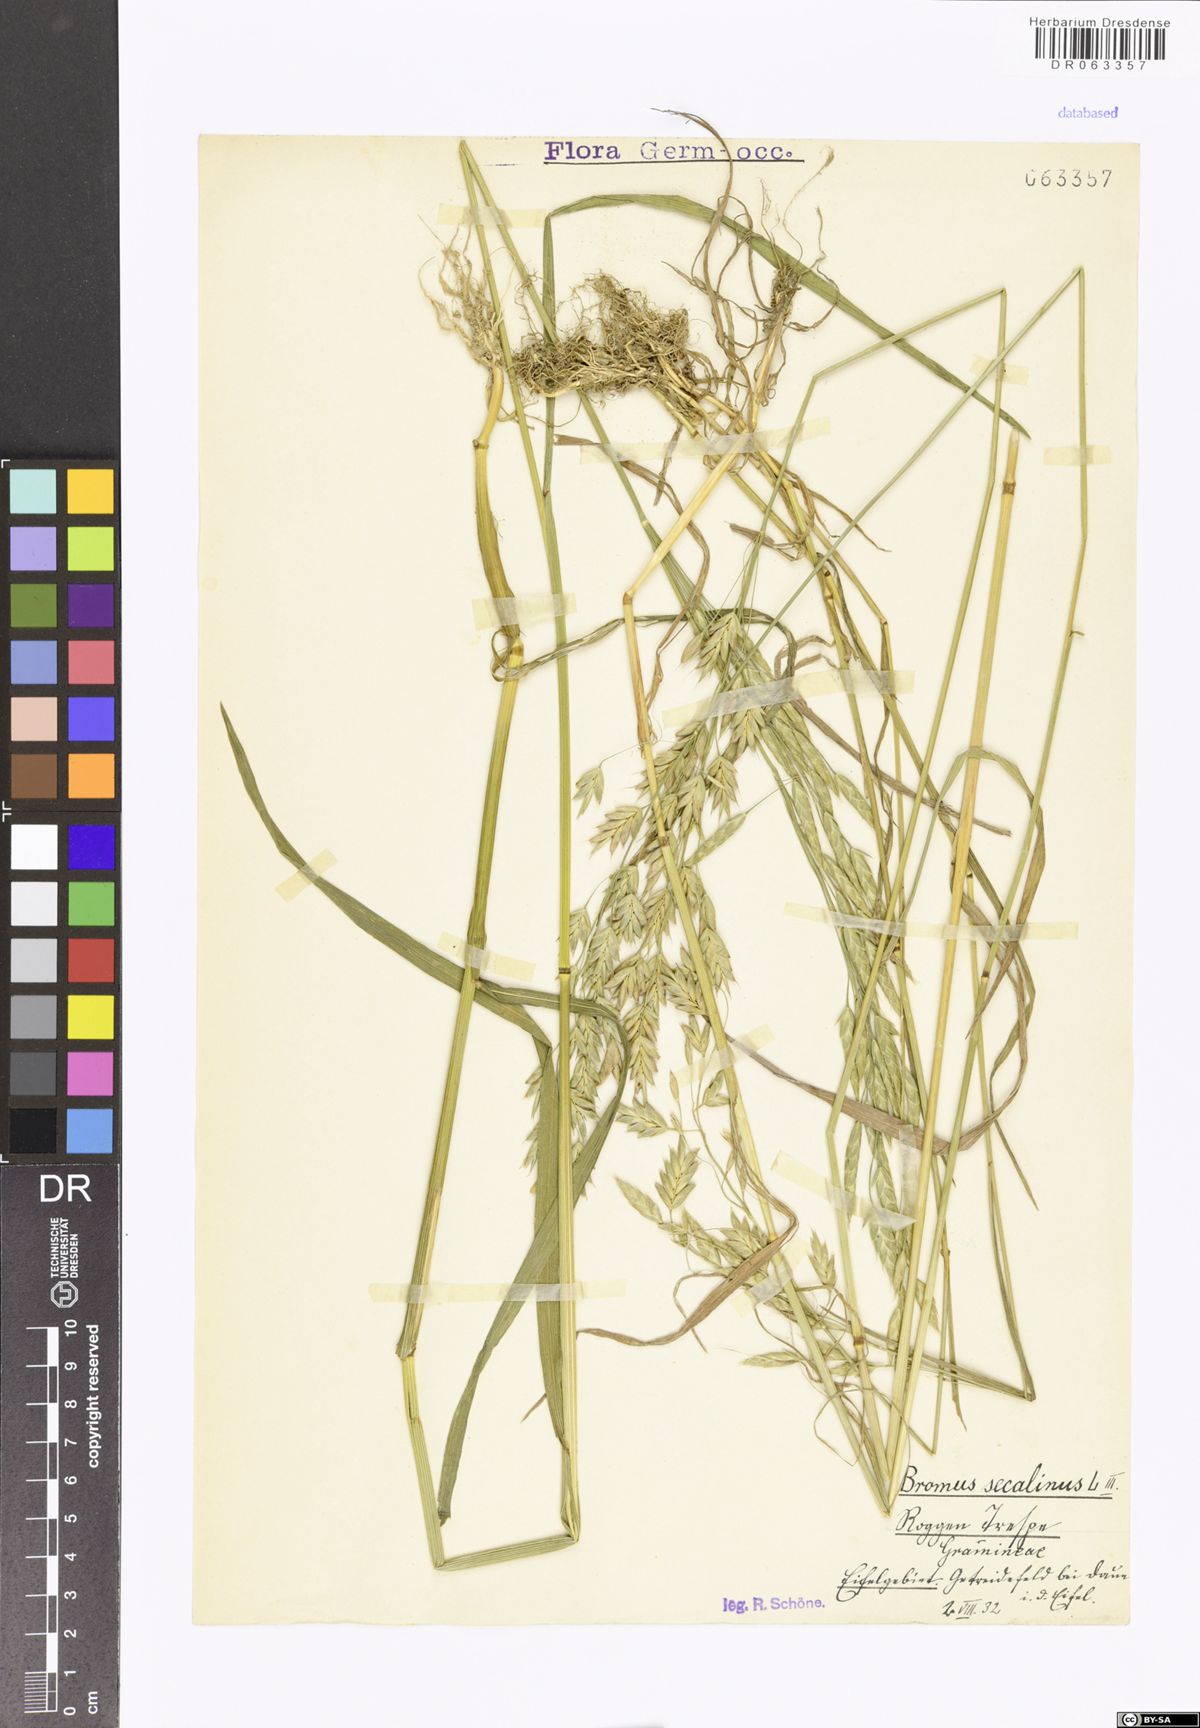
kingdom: Plantae
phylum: Tracheophyta
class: Liliopsida
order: Poales
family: Poaceae
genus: Bromus
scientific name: Bromus secalinus
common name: Rye brome
